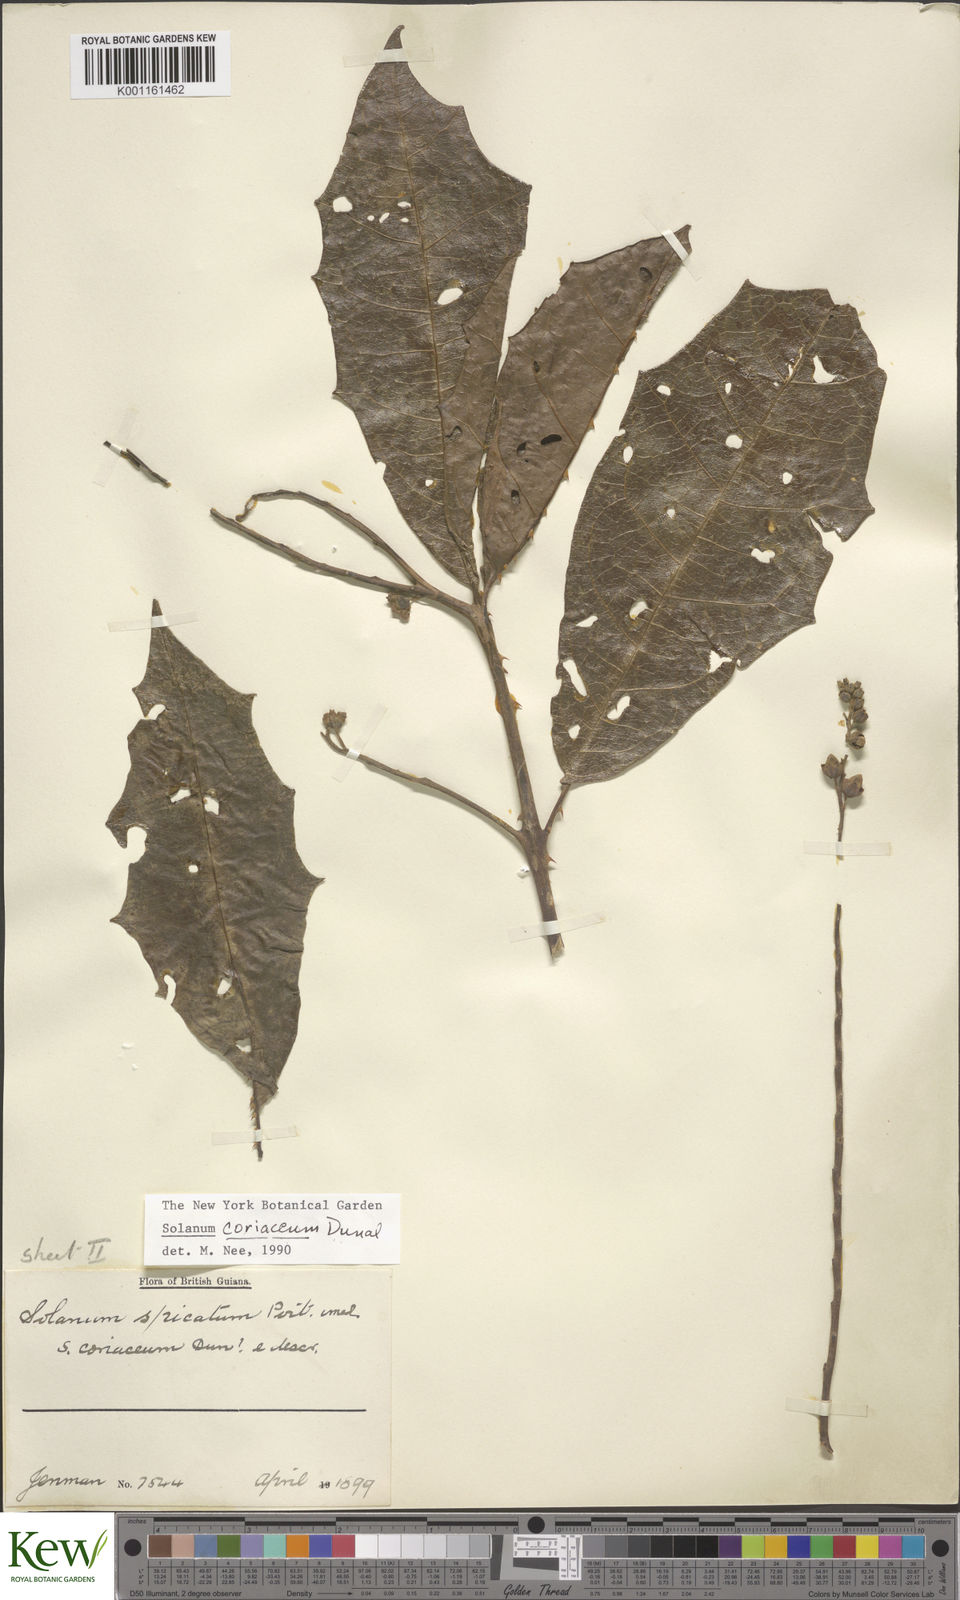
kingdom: Plantae
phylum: Tracheophyta
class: Magnoliopsida
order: Solanales
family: Solanaceae
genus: Solanum
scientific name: Solanum coriaceum
